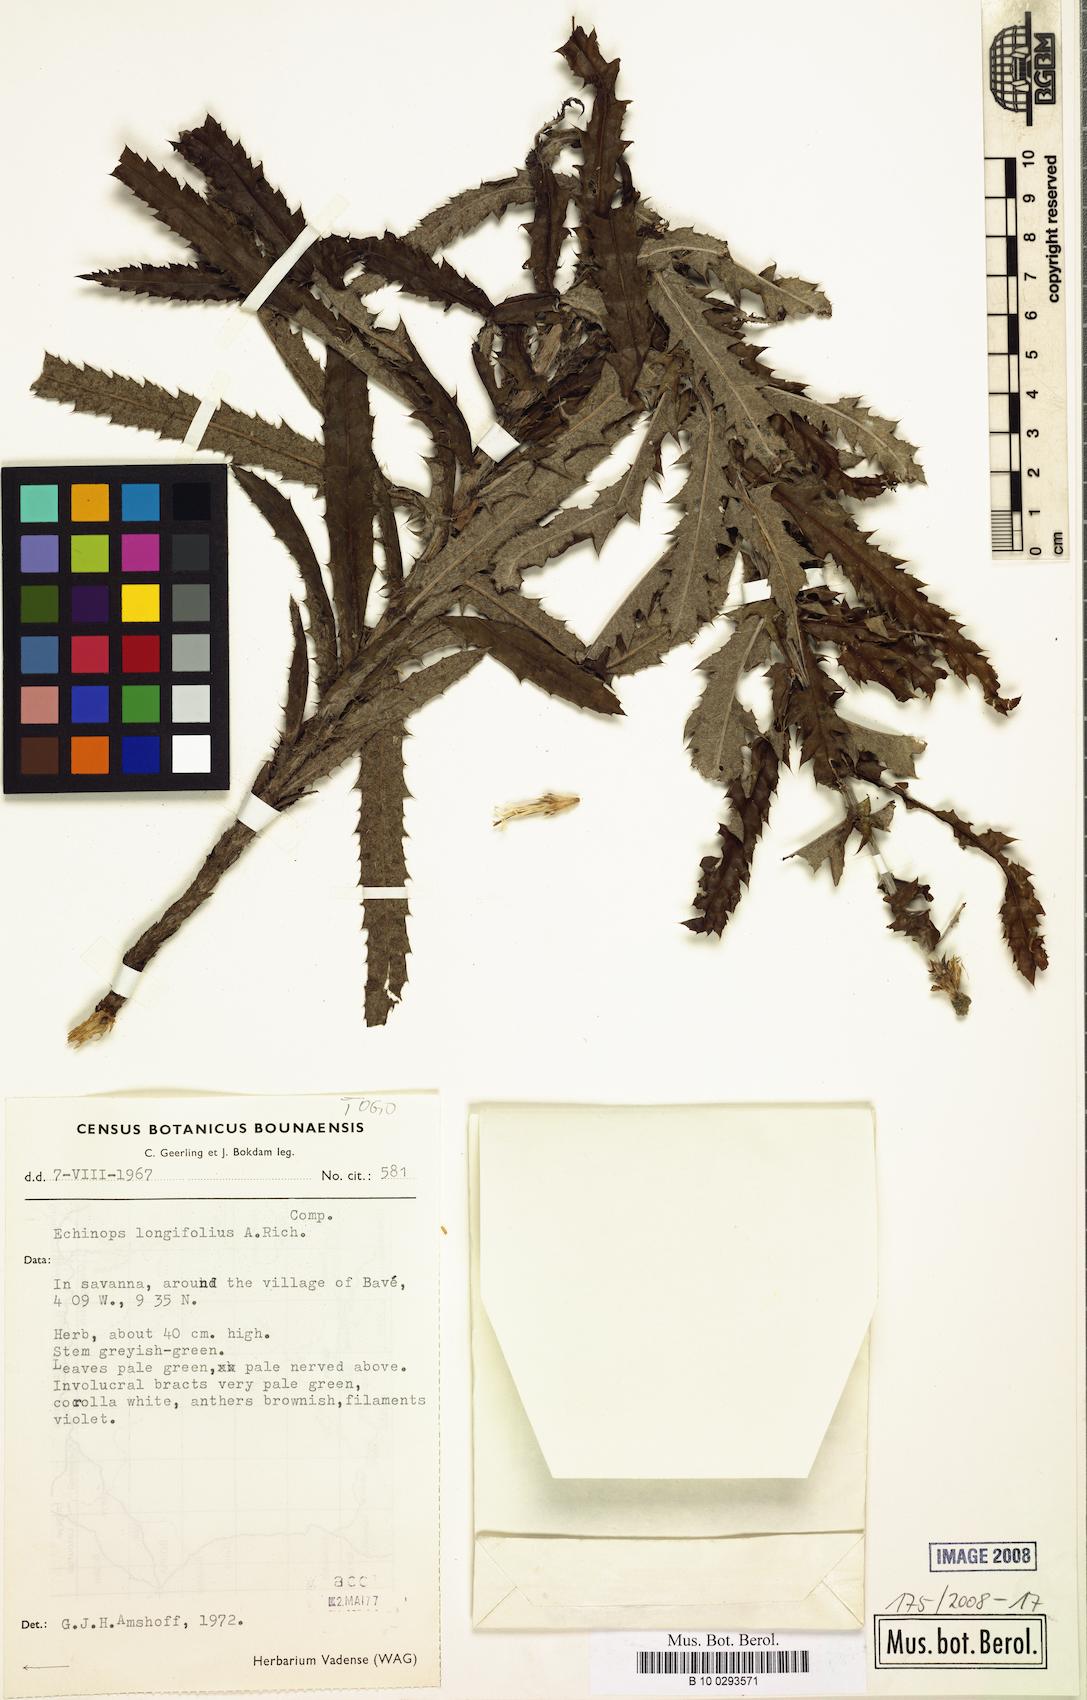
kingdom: Plantae
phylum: Tracheophyta
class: Magnoliopsida
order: Asterales
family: Asteraceae
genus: Echinops
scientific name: Echinops longifolius
